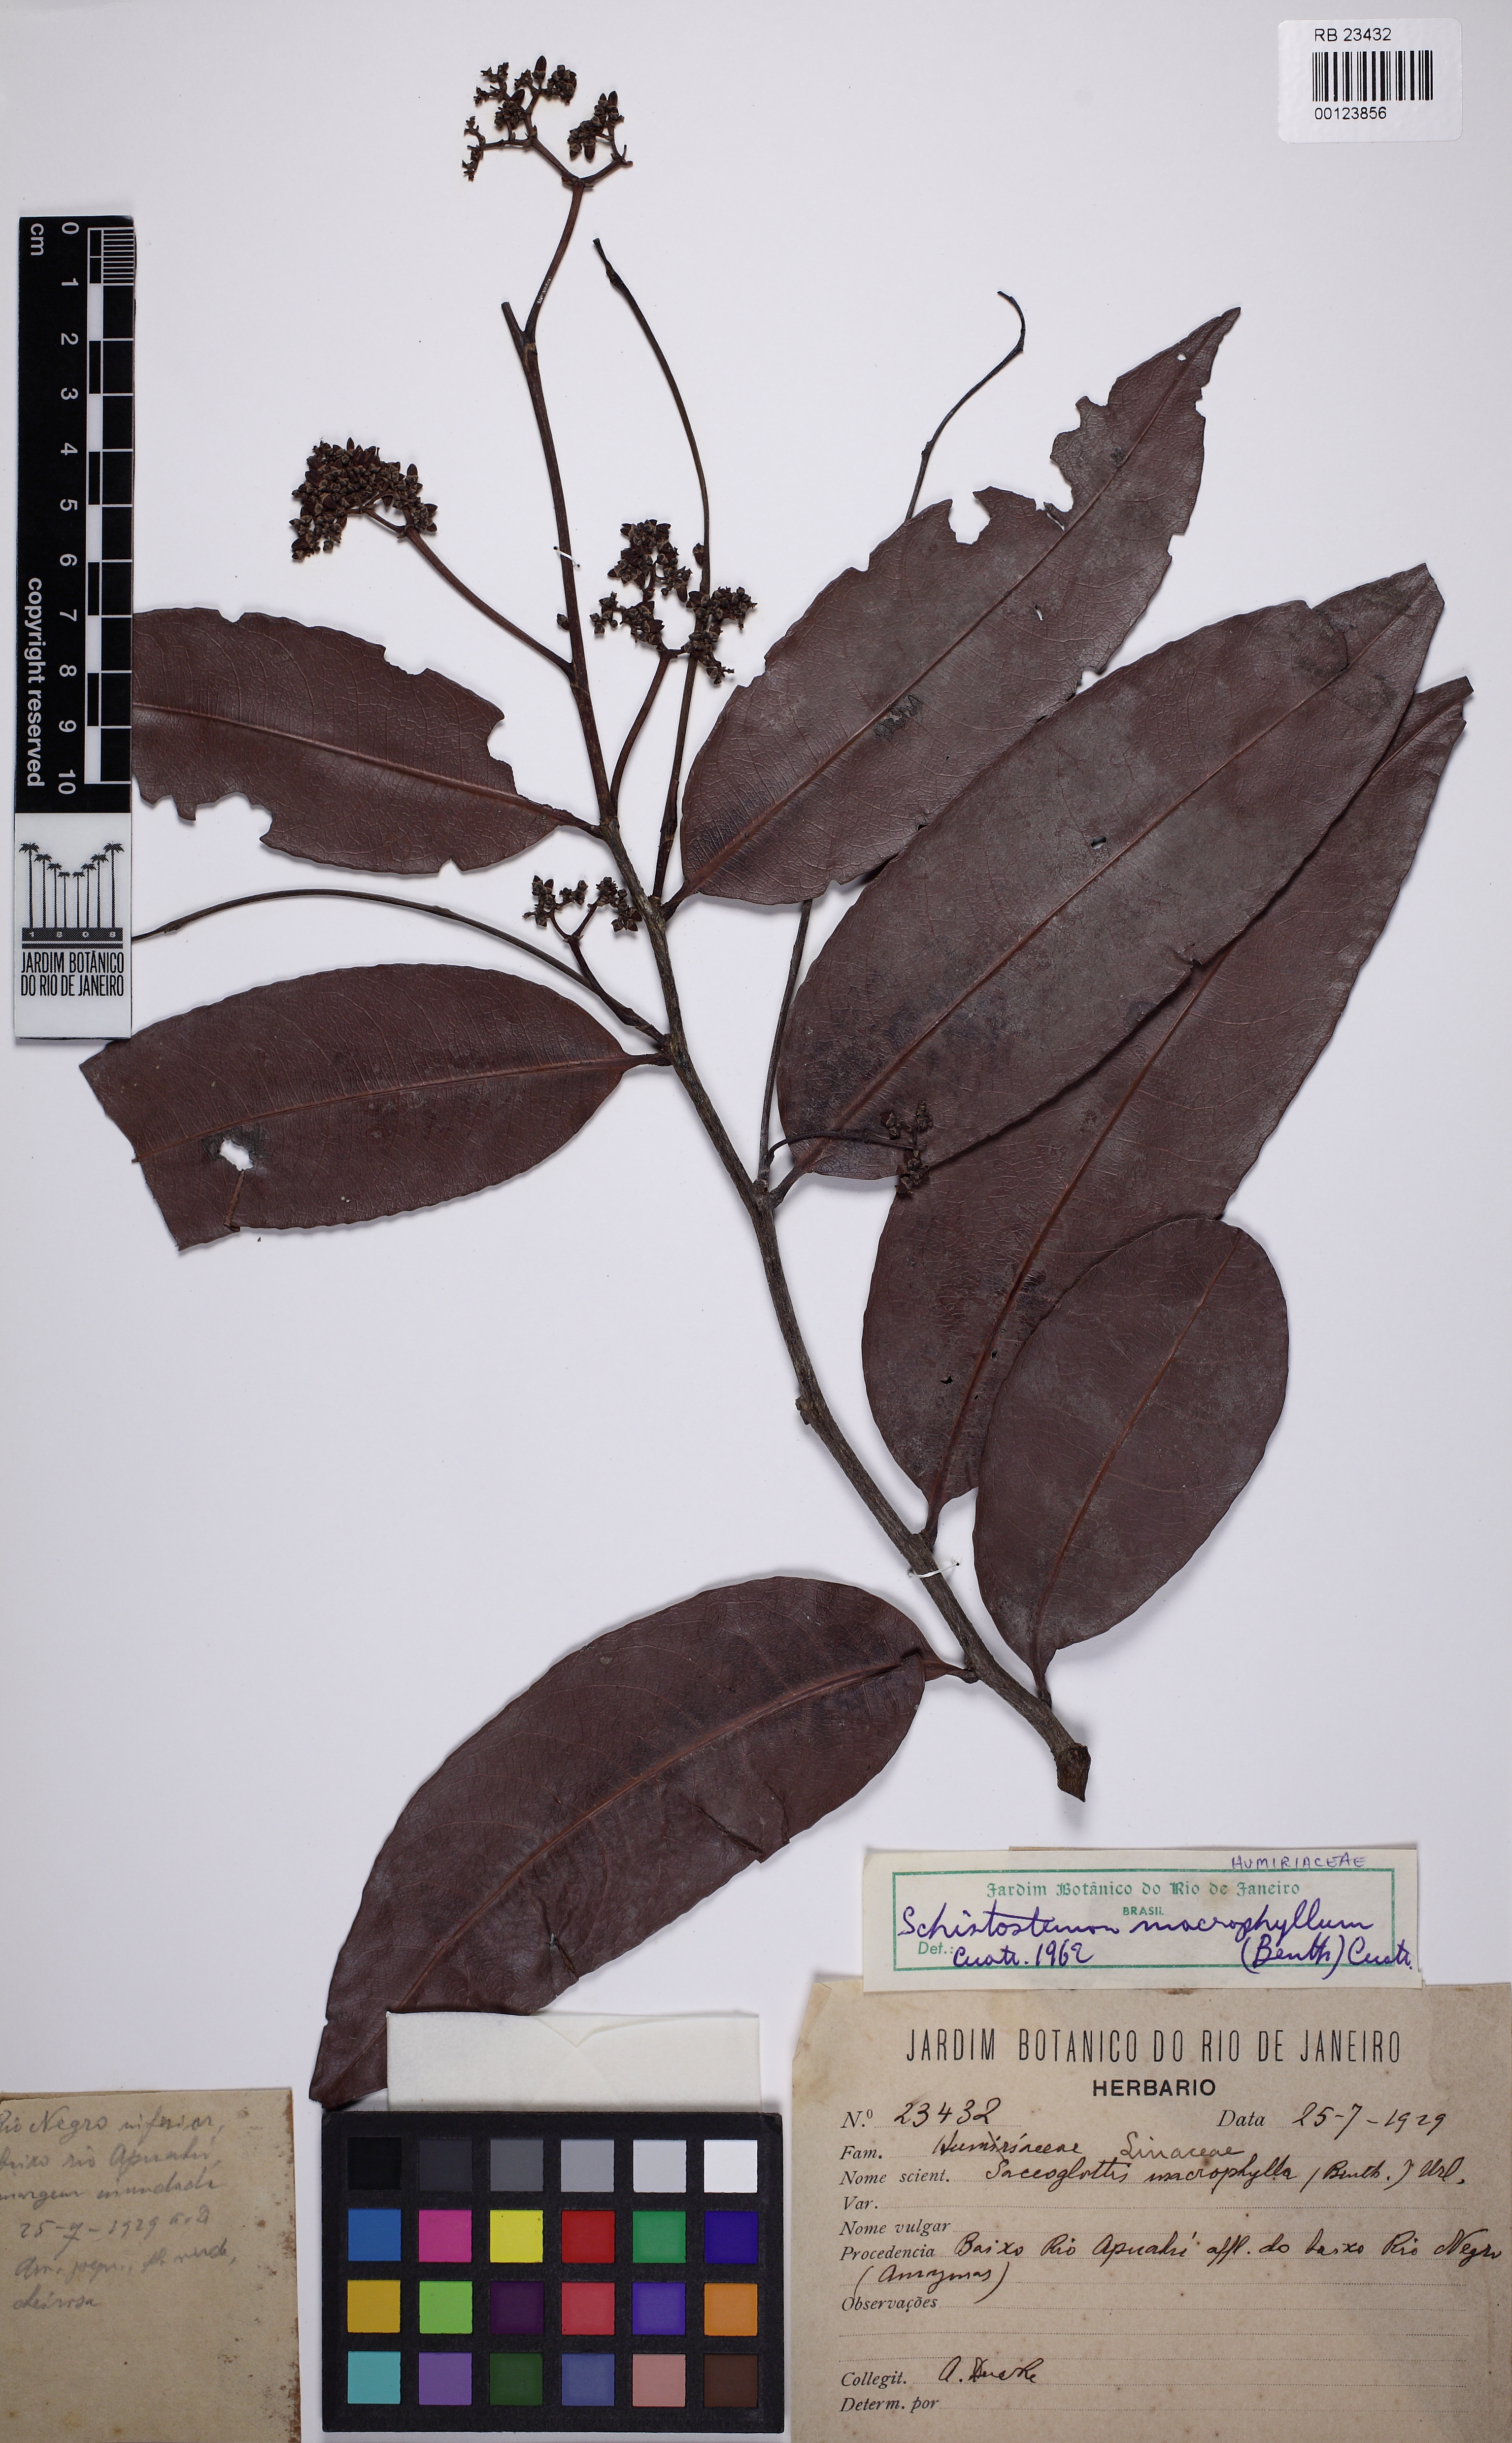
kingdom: Plantae
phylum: Tracheophyta
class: Magnoliopsida
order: Malpighiales
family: Humiriaceae
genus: Schistostemon
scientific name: Schistostemon macrophyllum
